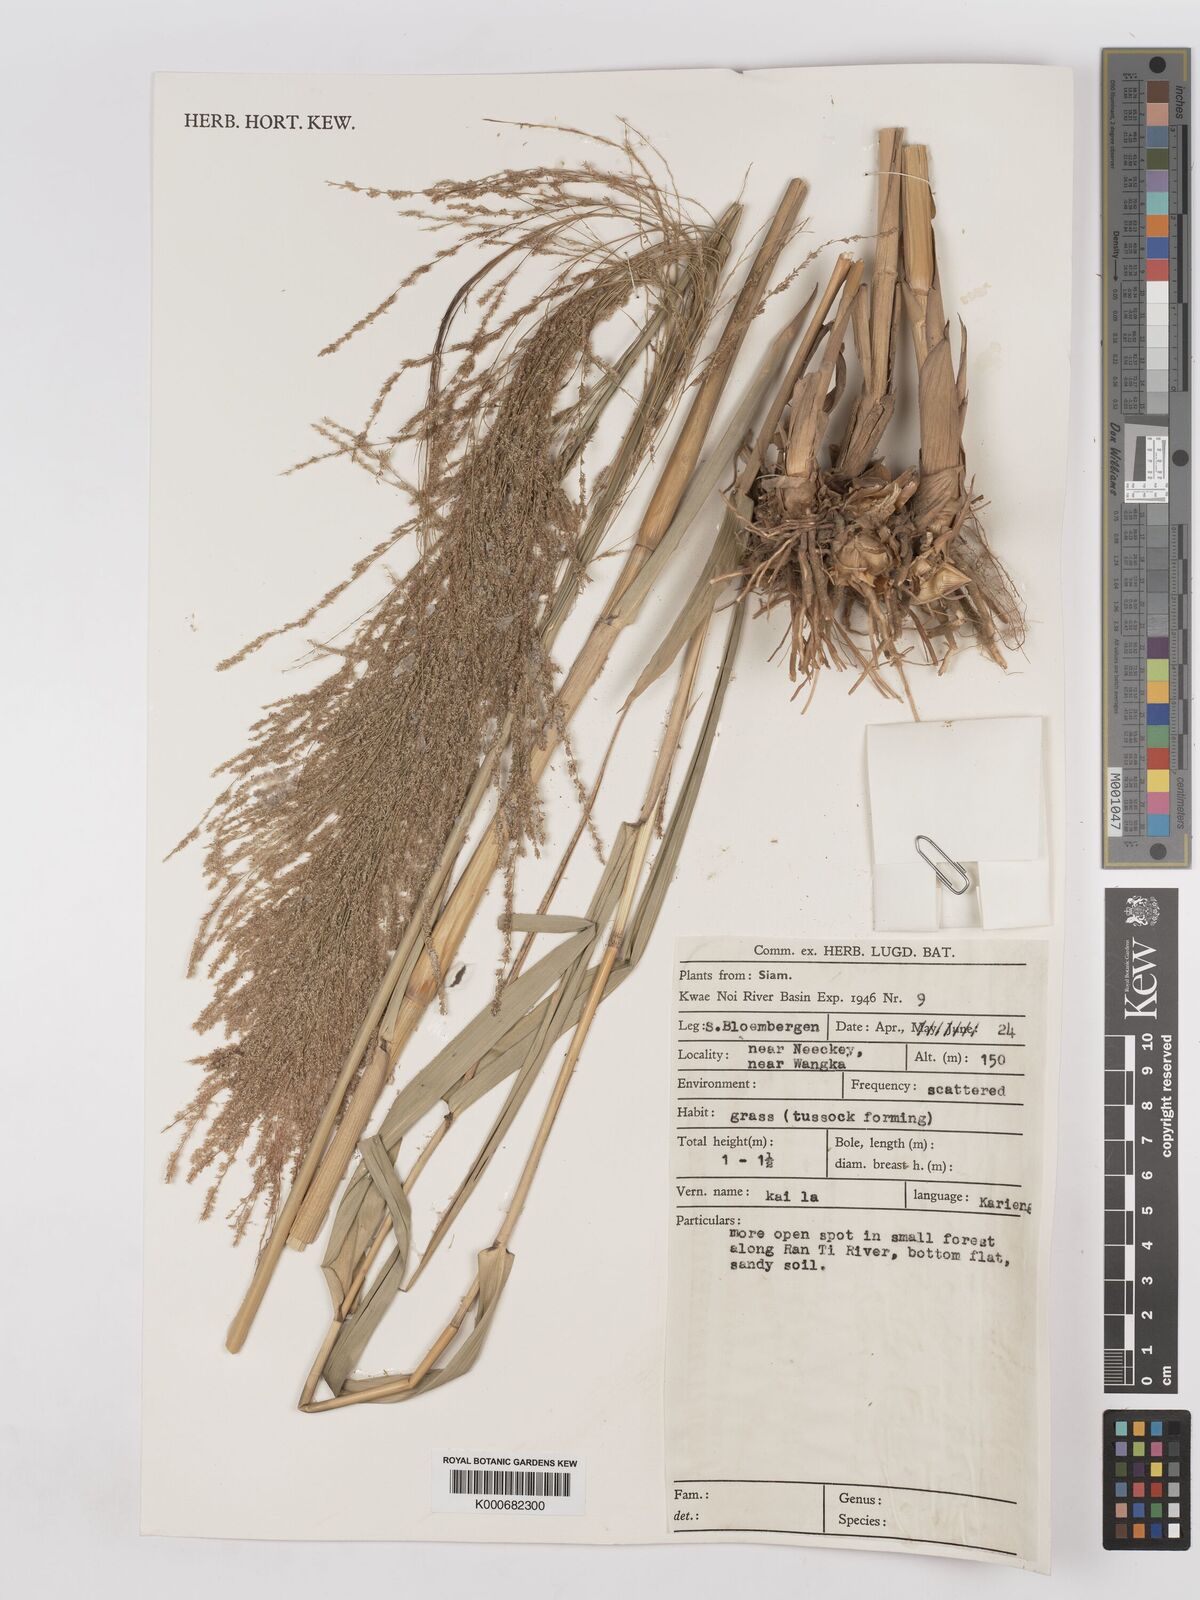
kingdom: Plantae
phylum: Tracheophyta
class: Liliopsida
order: Poales
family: Poaceae
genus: Thysanolaena
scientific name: Thysanolaena latifolia
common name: Tiger grass
